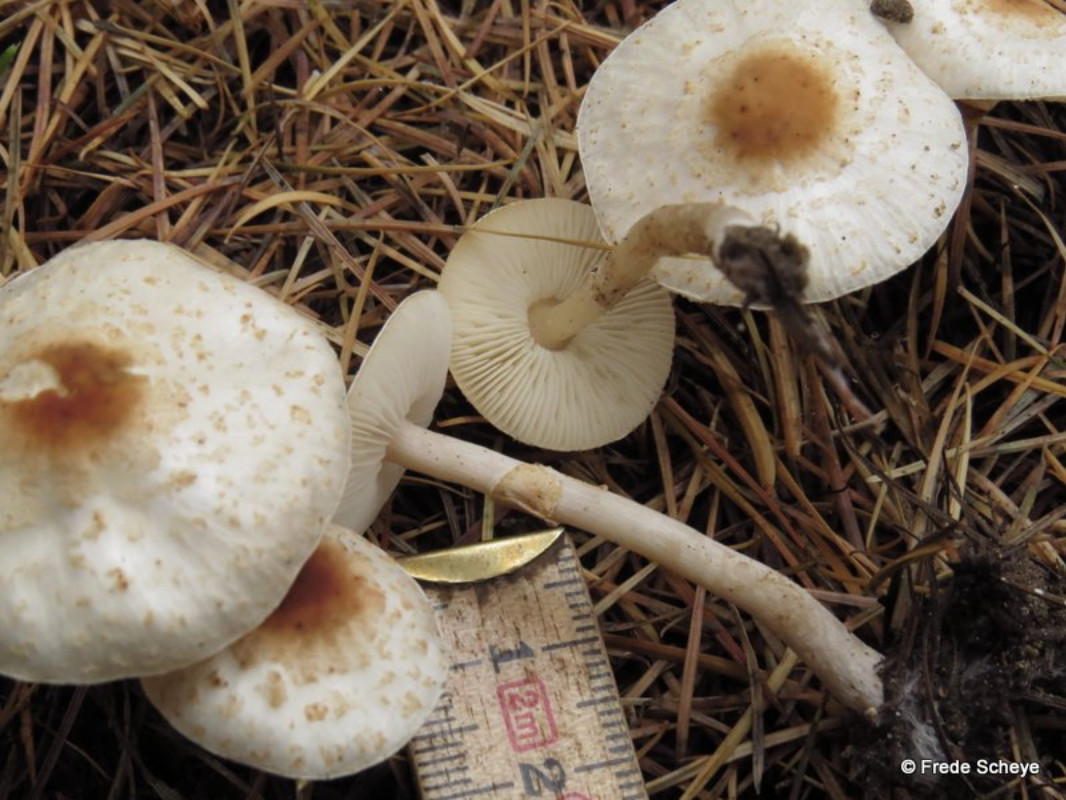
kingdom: Fungi
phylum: Basidiomycota
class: Agaricomycetes
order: Agaricales
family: Agaricaceae
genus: Lepiota
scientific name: Lepiota cristata
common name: stinkende parasolhat
